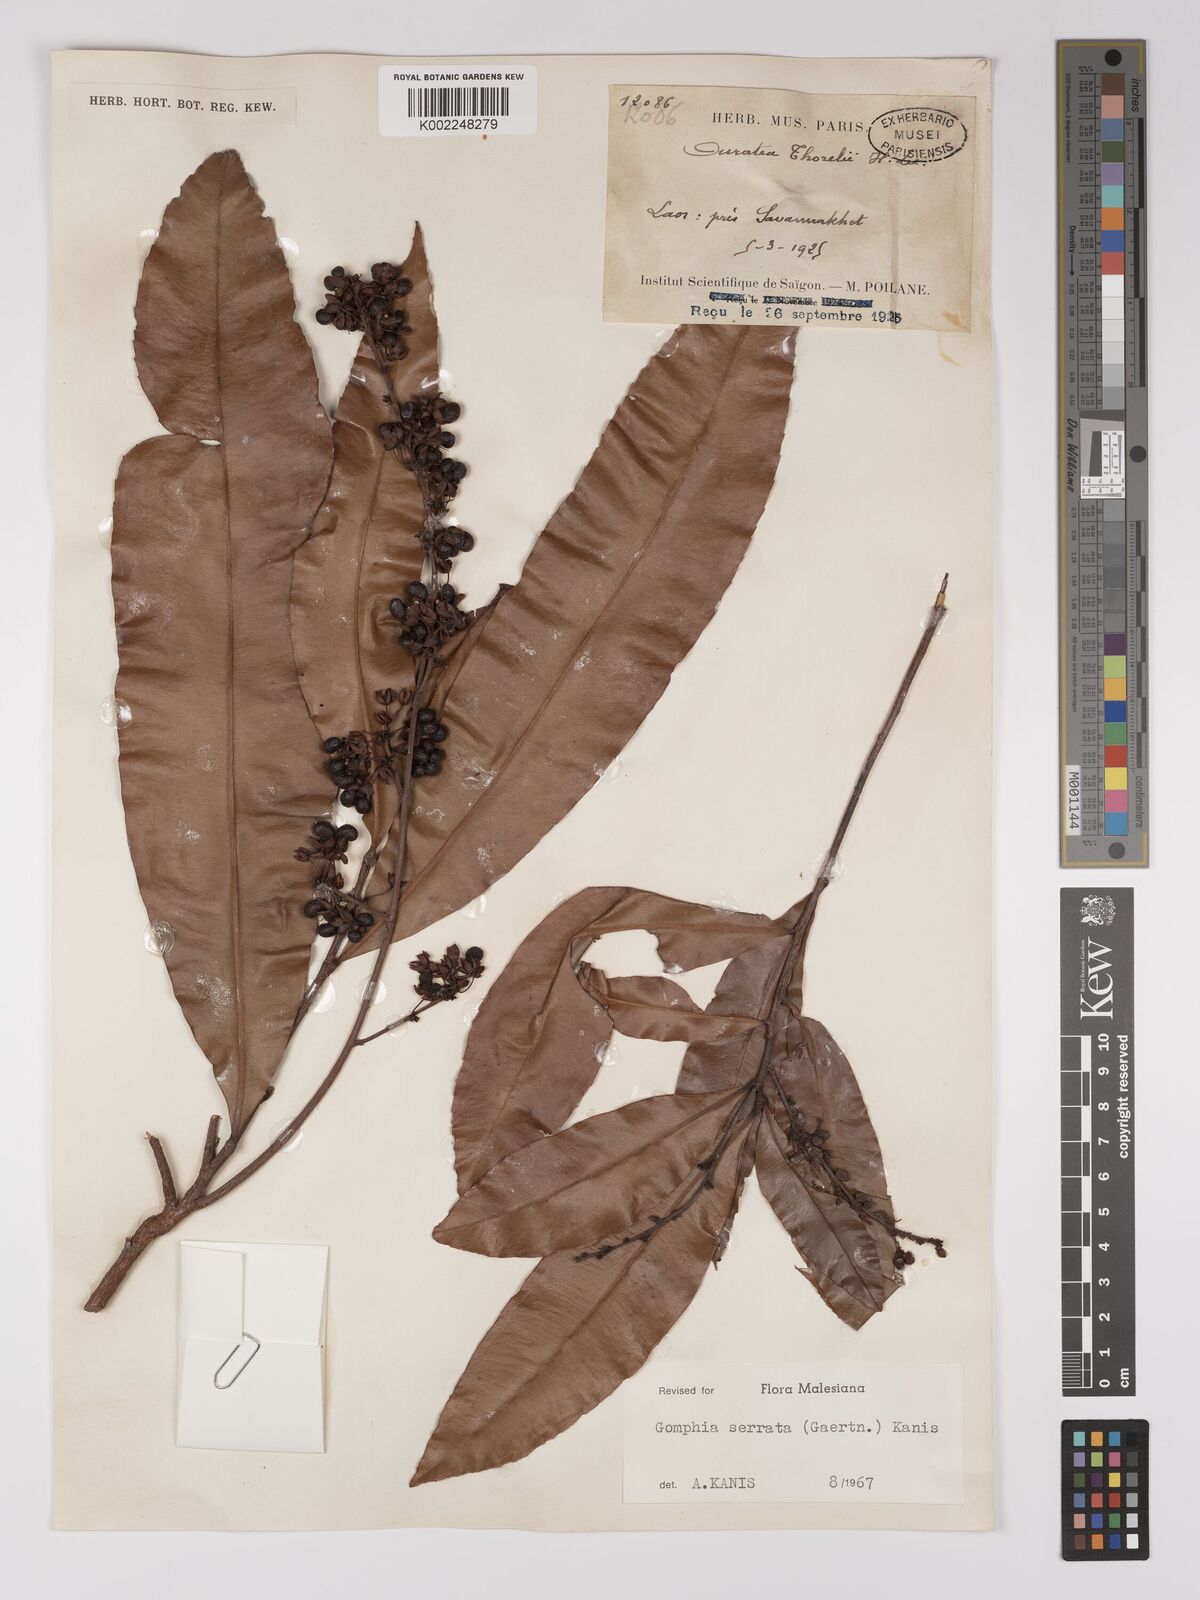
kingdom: Plantae
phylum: Tracheophyta
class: Magnoliopsida
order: Malpighiales
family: Ochnaceae
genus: Gomphia
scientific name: Gomphia serrata
